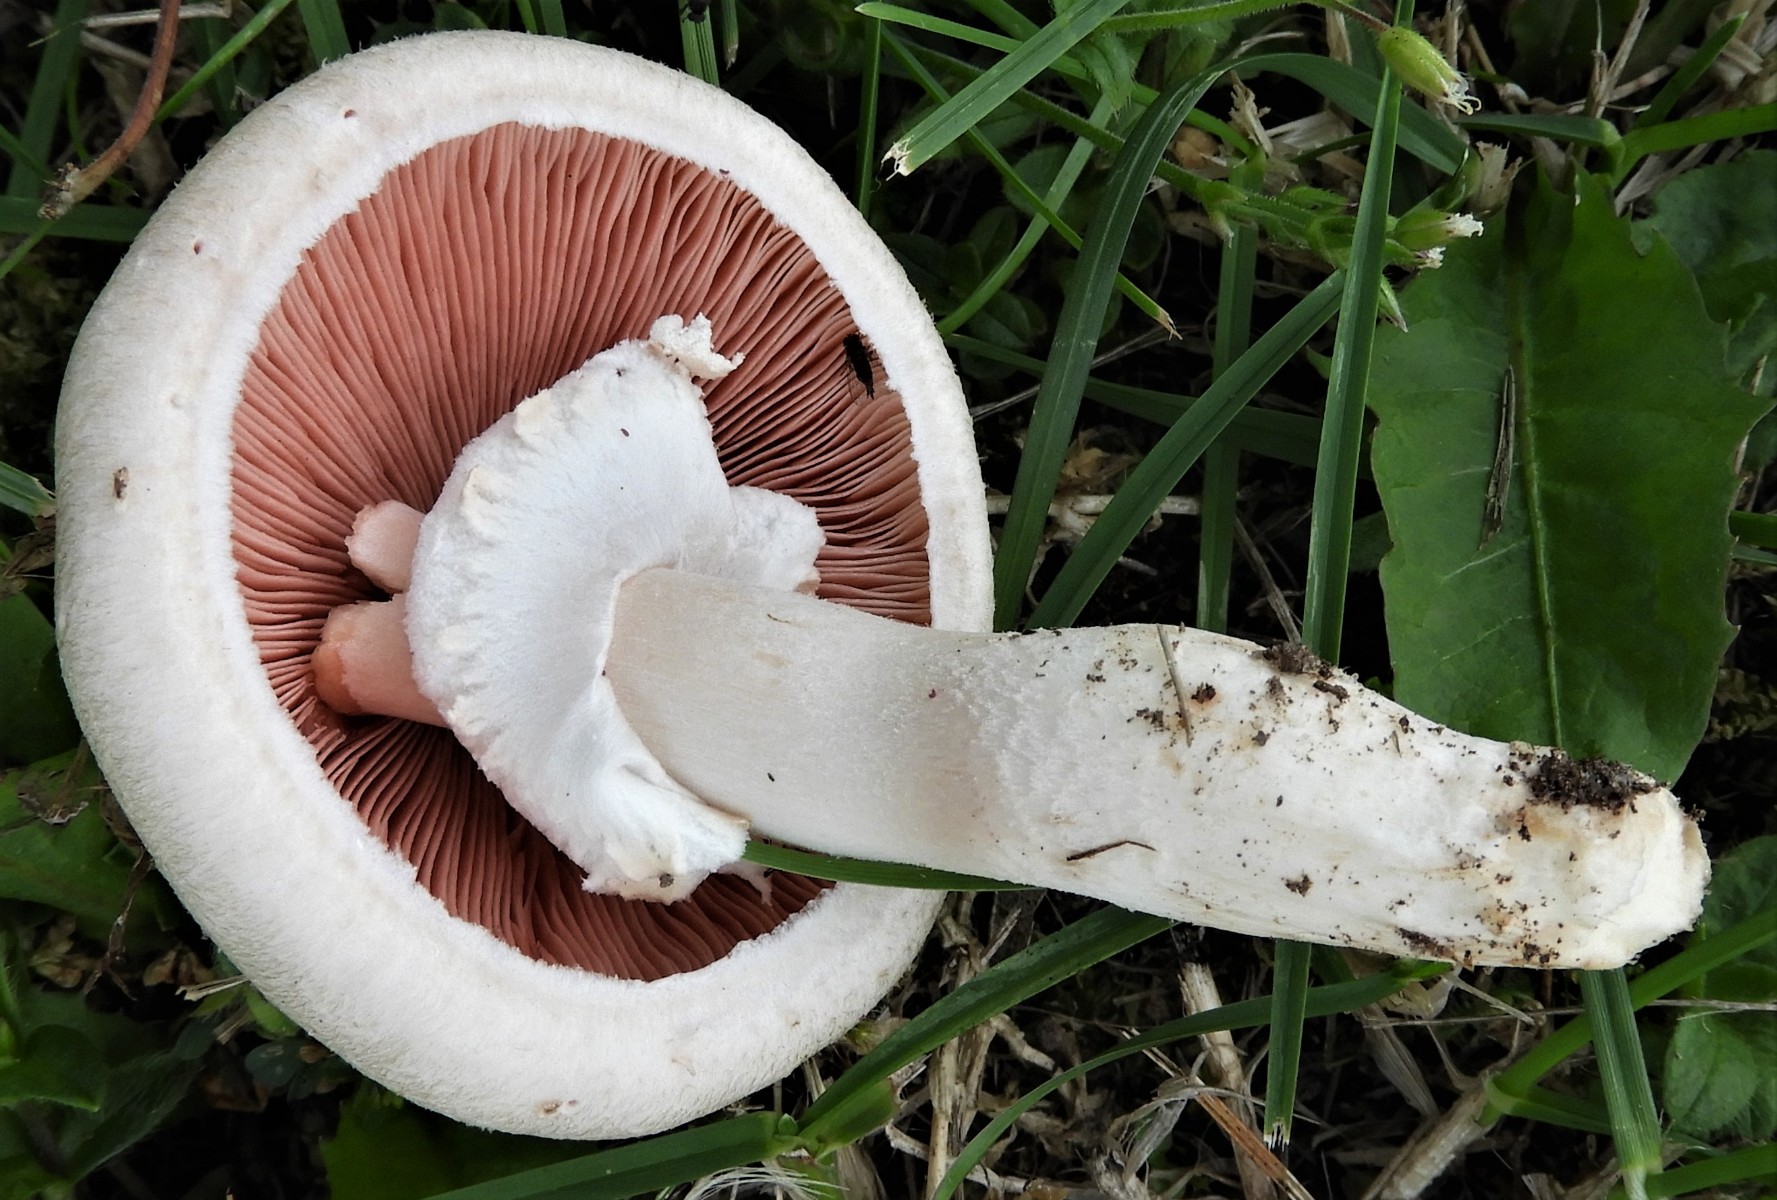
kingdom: Fungi
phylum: Basidiomycota
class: Agaricomycetes
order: Agaricales
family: Agaricaceae
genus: Agaricus
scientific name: Agaricus campestris
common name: mark-champignon
